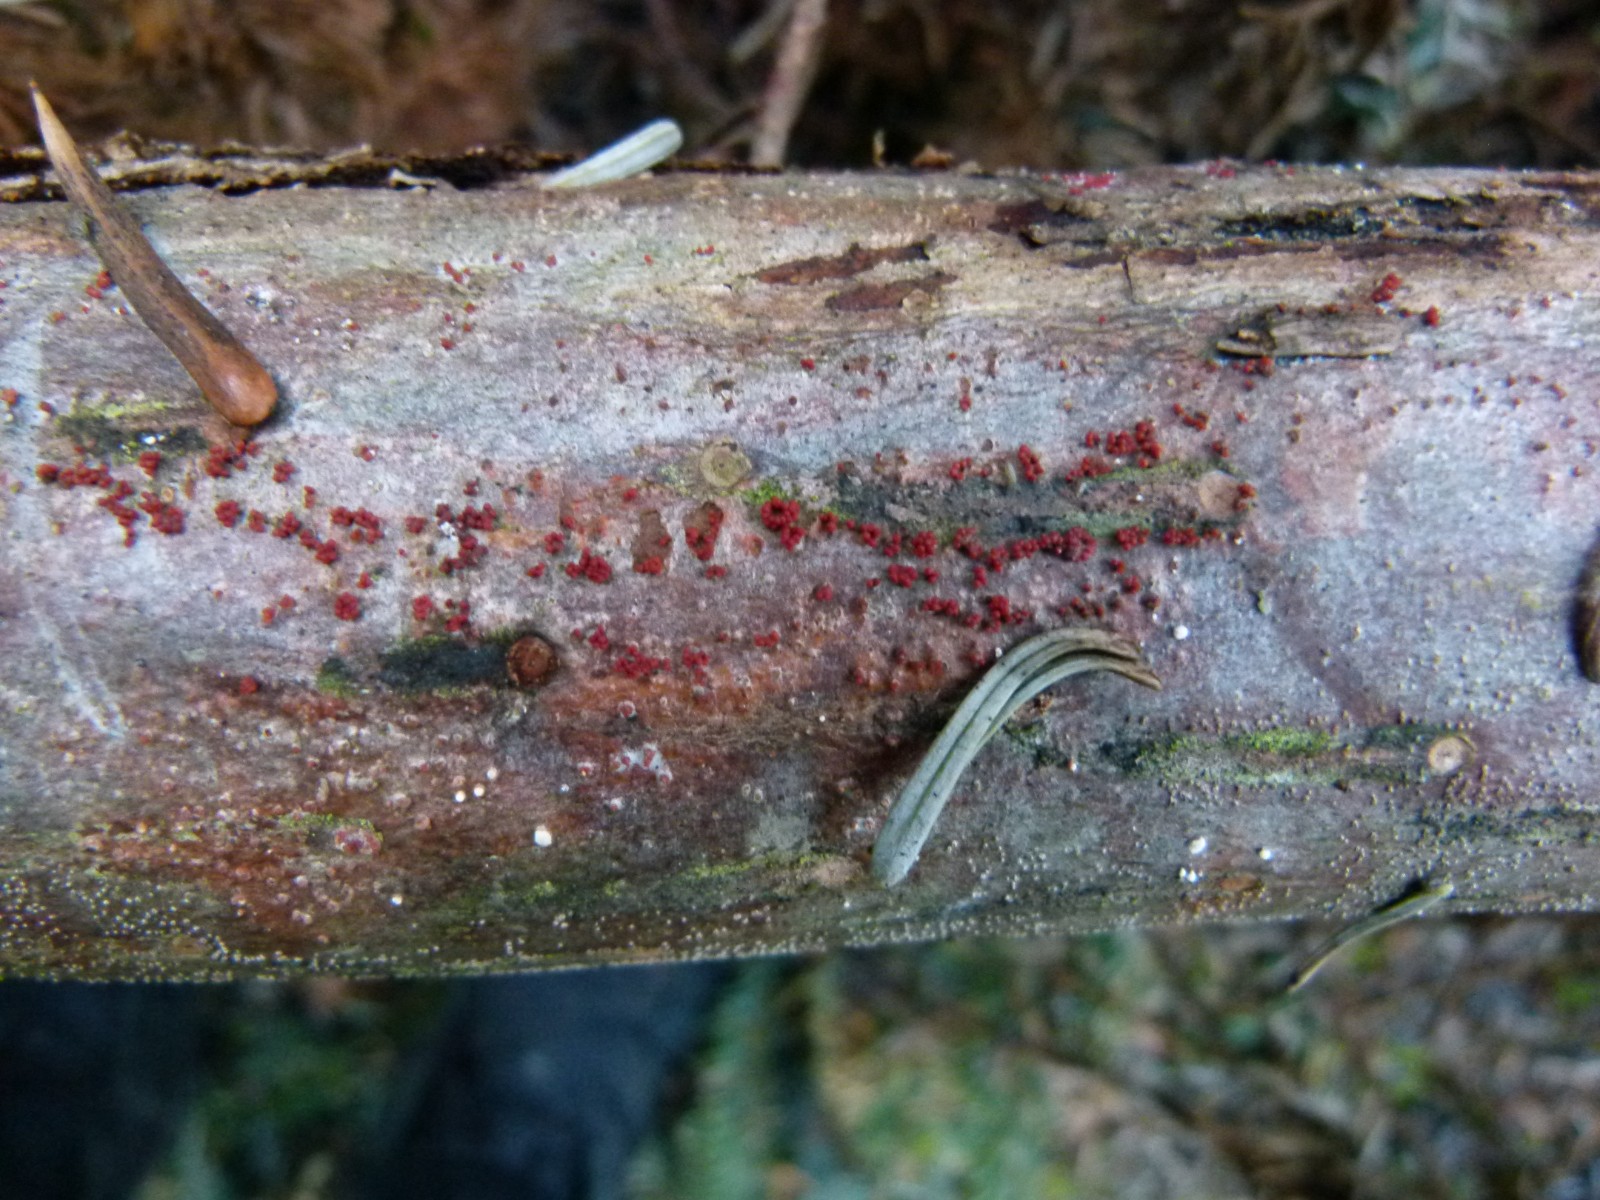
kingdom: Fungi
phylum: Ascomycota
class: Sordariomycetes
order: Hypocreales
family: Nectriaceae
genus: Neonectria
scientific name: Neonectria neomacrospora
